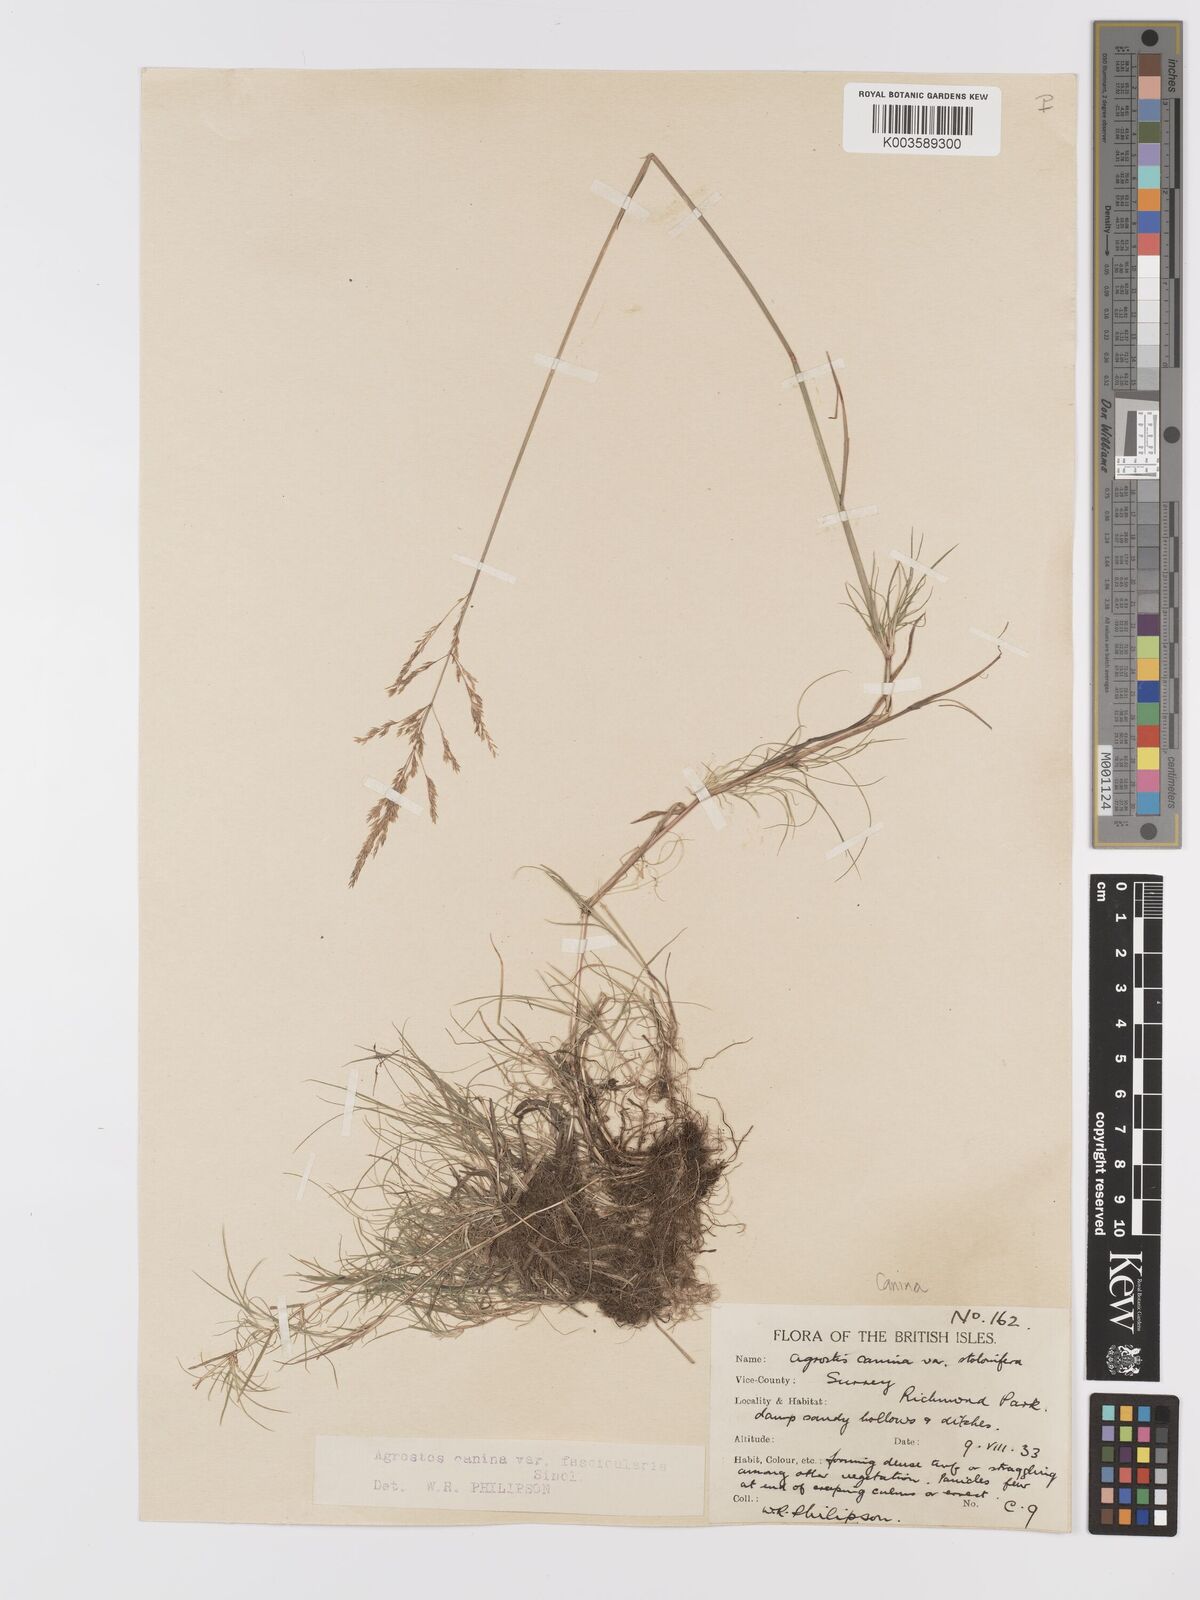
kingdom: Plantae
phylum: Tracheophyta
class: Liliopsida
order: Poales
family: Poaceae
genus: Agrostis
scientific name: Agrostis canina
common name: Velvet bent
